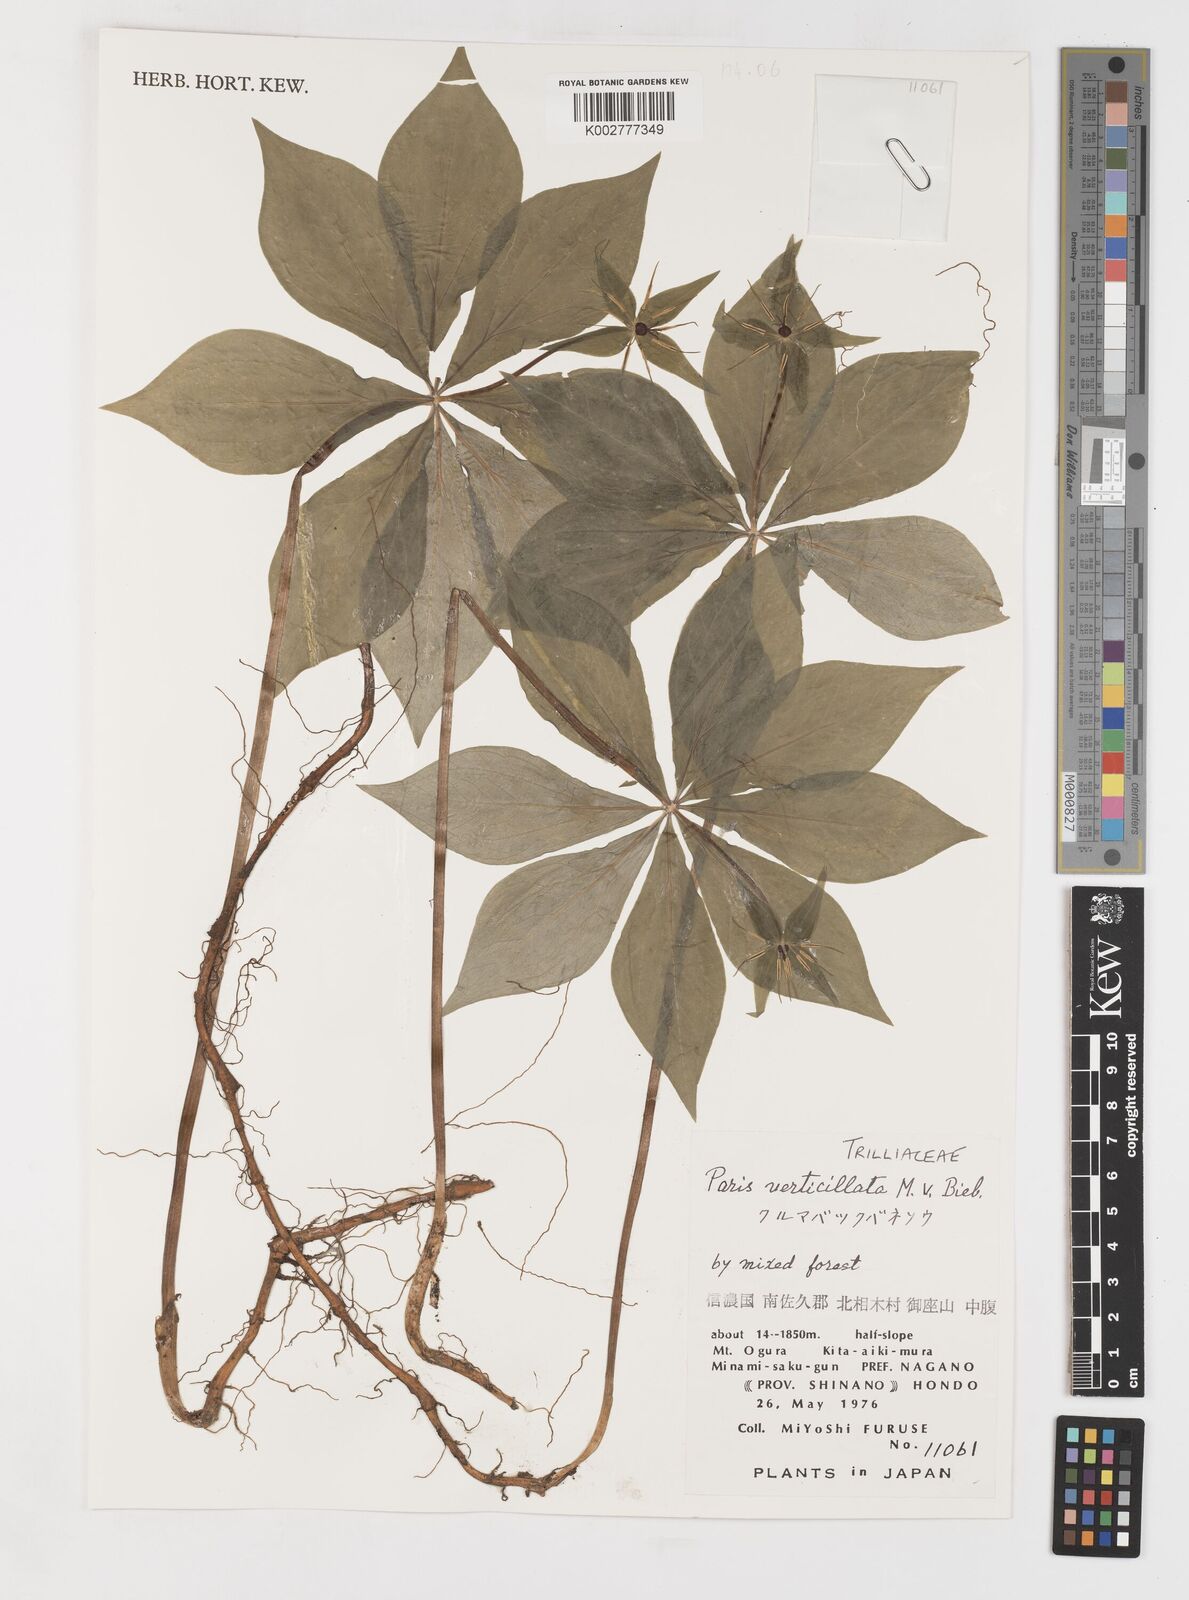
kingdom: Plantae
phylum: Tracheophyta
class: Liliopsida
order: Liliales
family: Melanthiaceae
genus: Paris
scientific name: Paris verticillata
